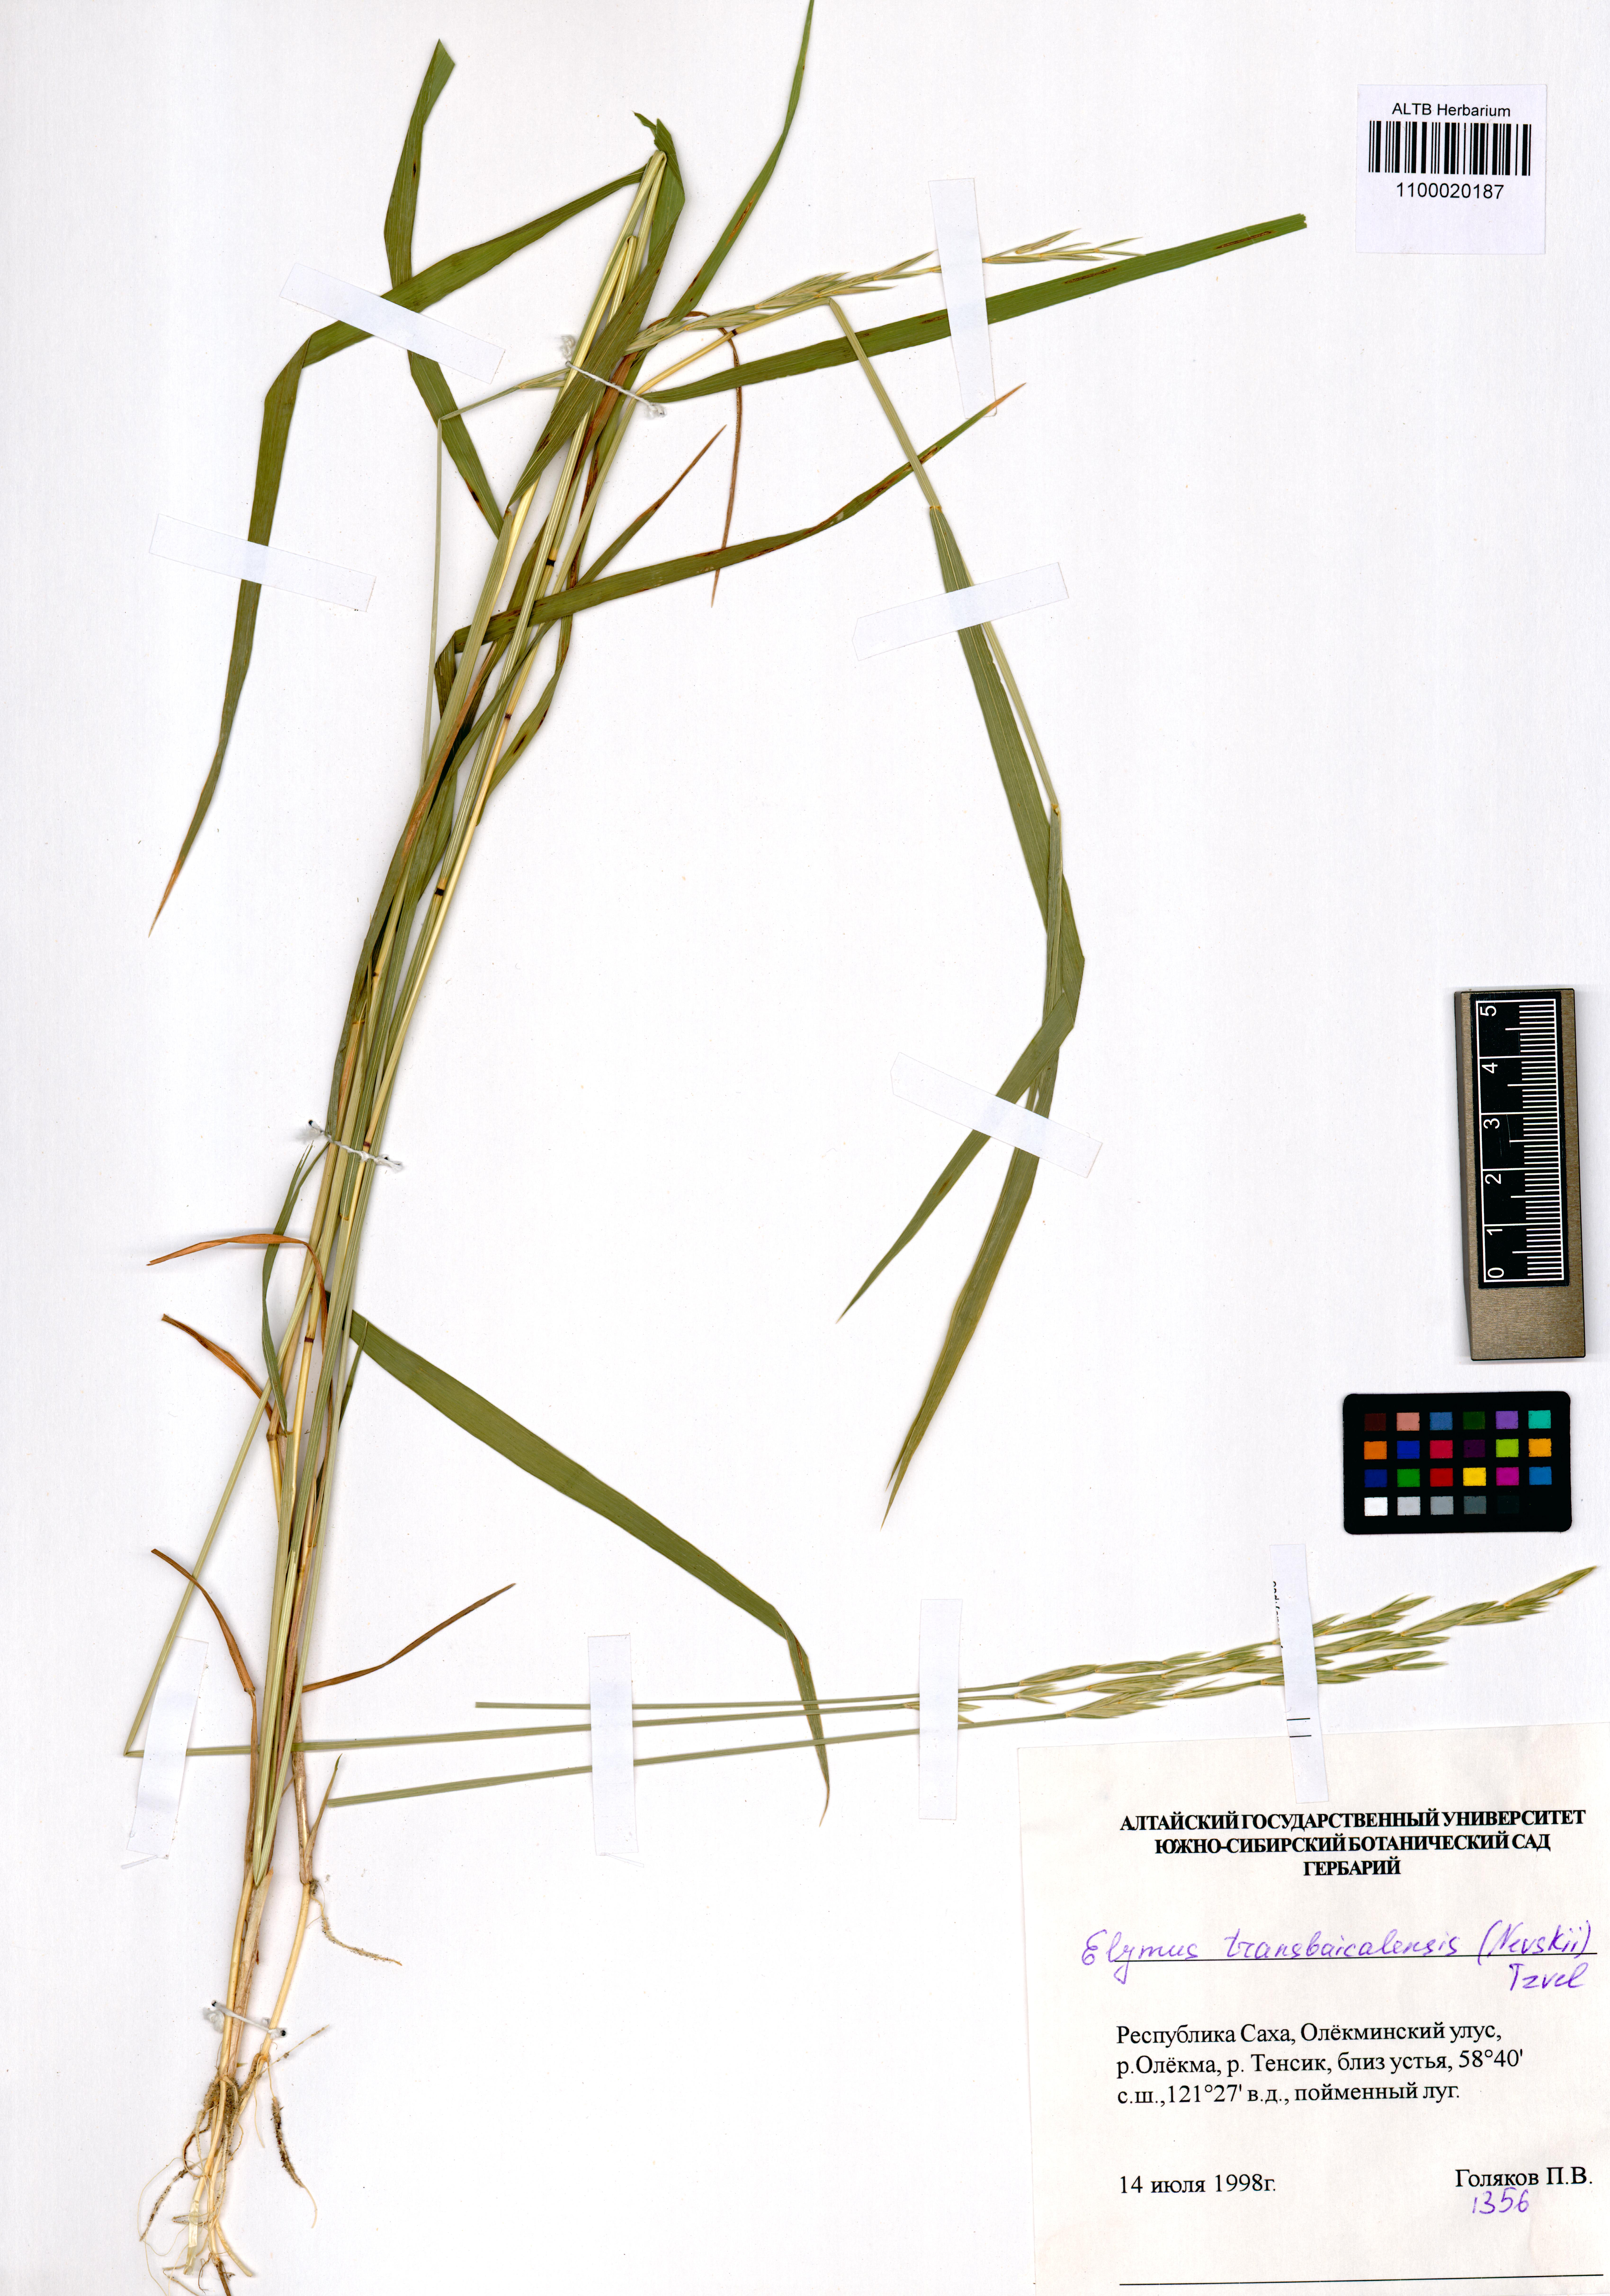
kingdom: Plantae
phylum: Tracheophyta
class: Liliopsida
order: Poales
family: Poaceae
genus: Elymus
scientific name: Elymus mutabilis
